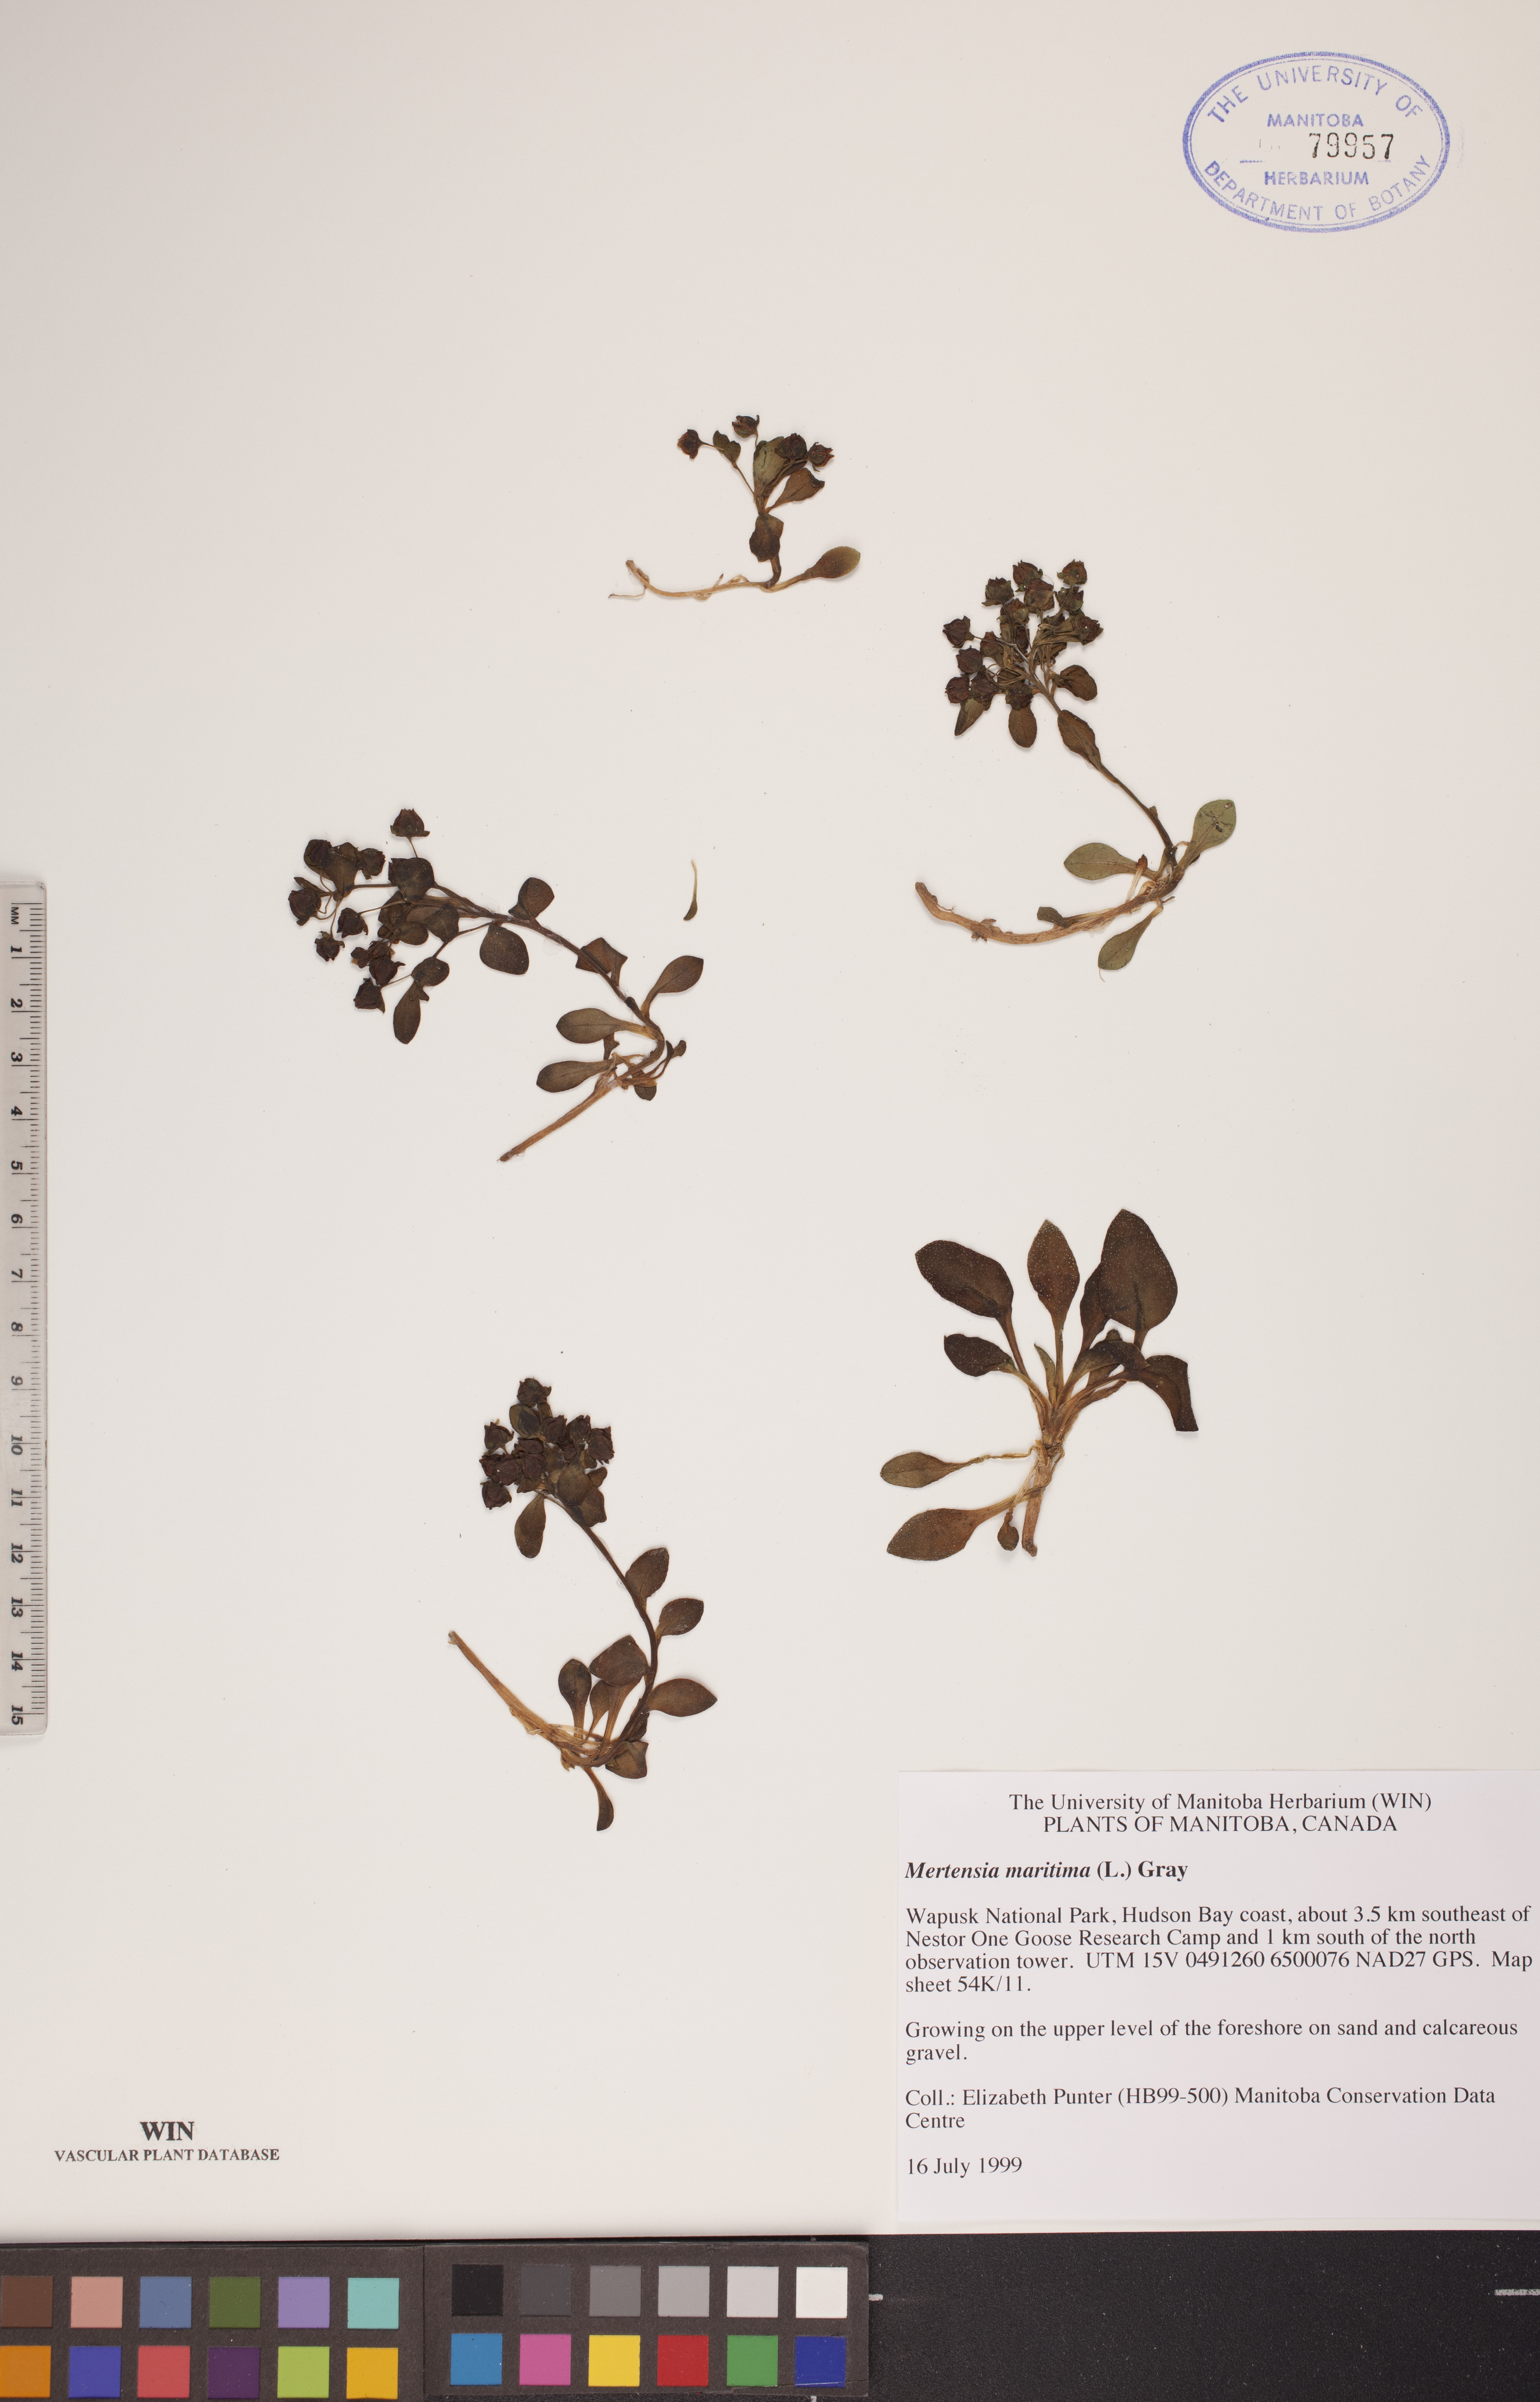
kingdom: Plantae
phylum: Tracheophyta
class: Magnoliopsida
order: Boraginales
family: Boraginaceae
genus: Mertensia
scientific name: Mertensia maritima
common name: Oysterplant
